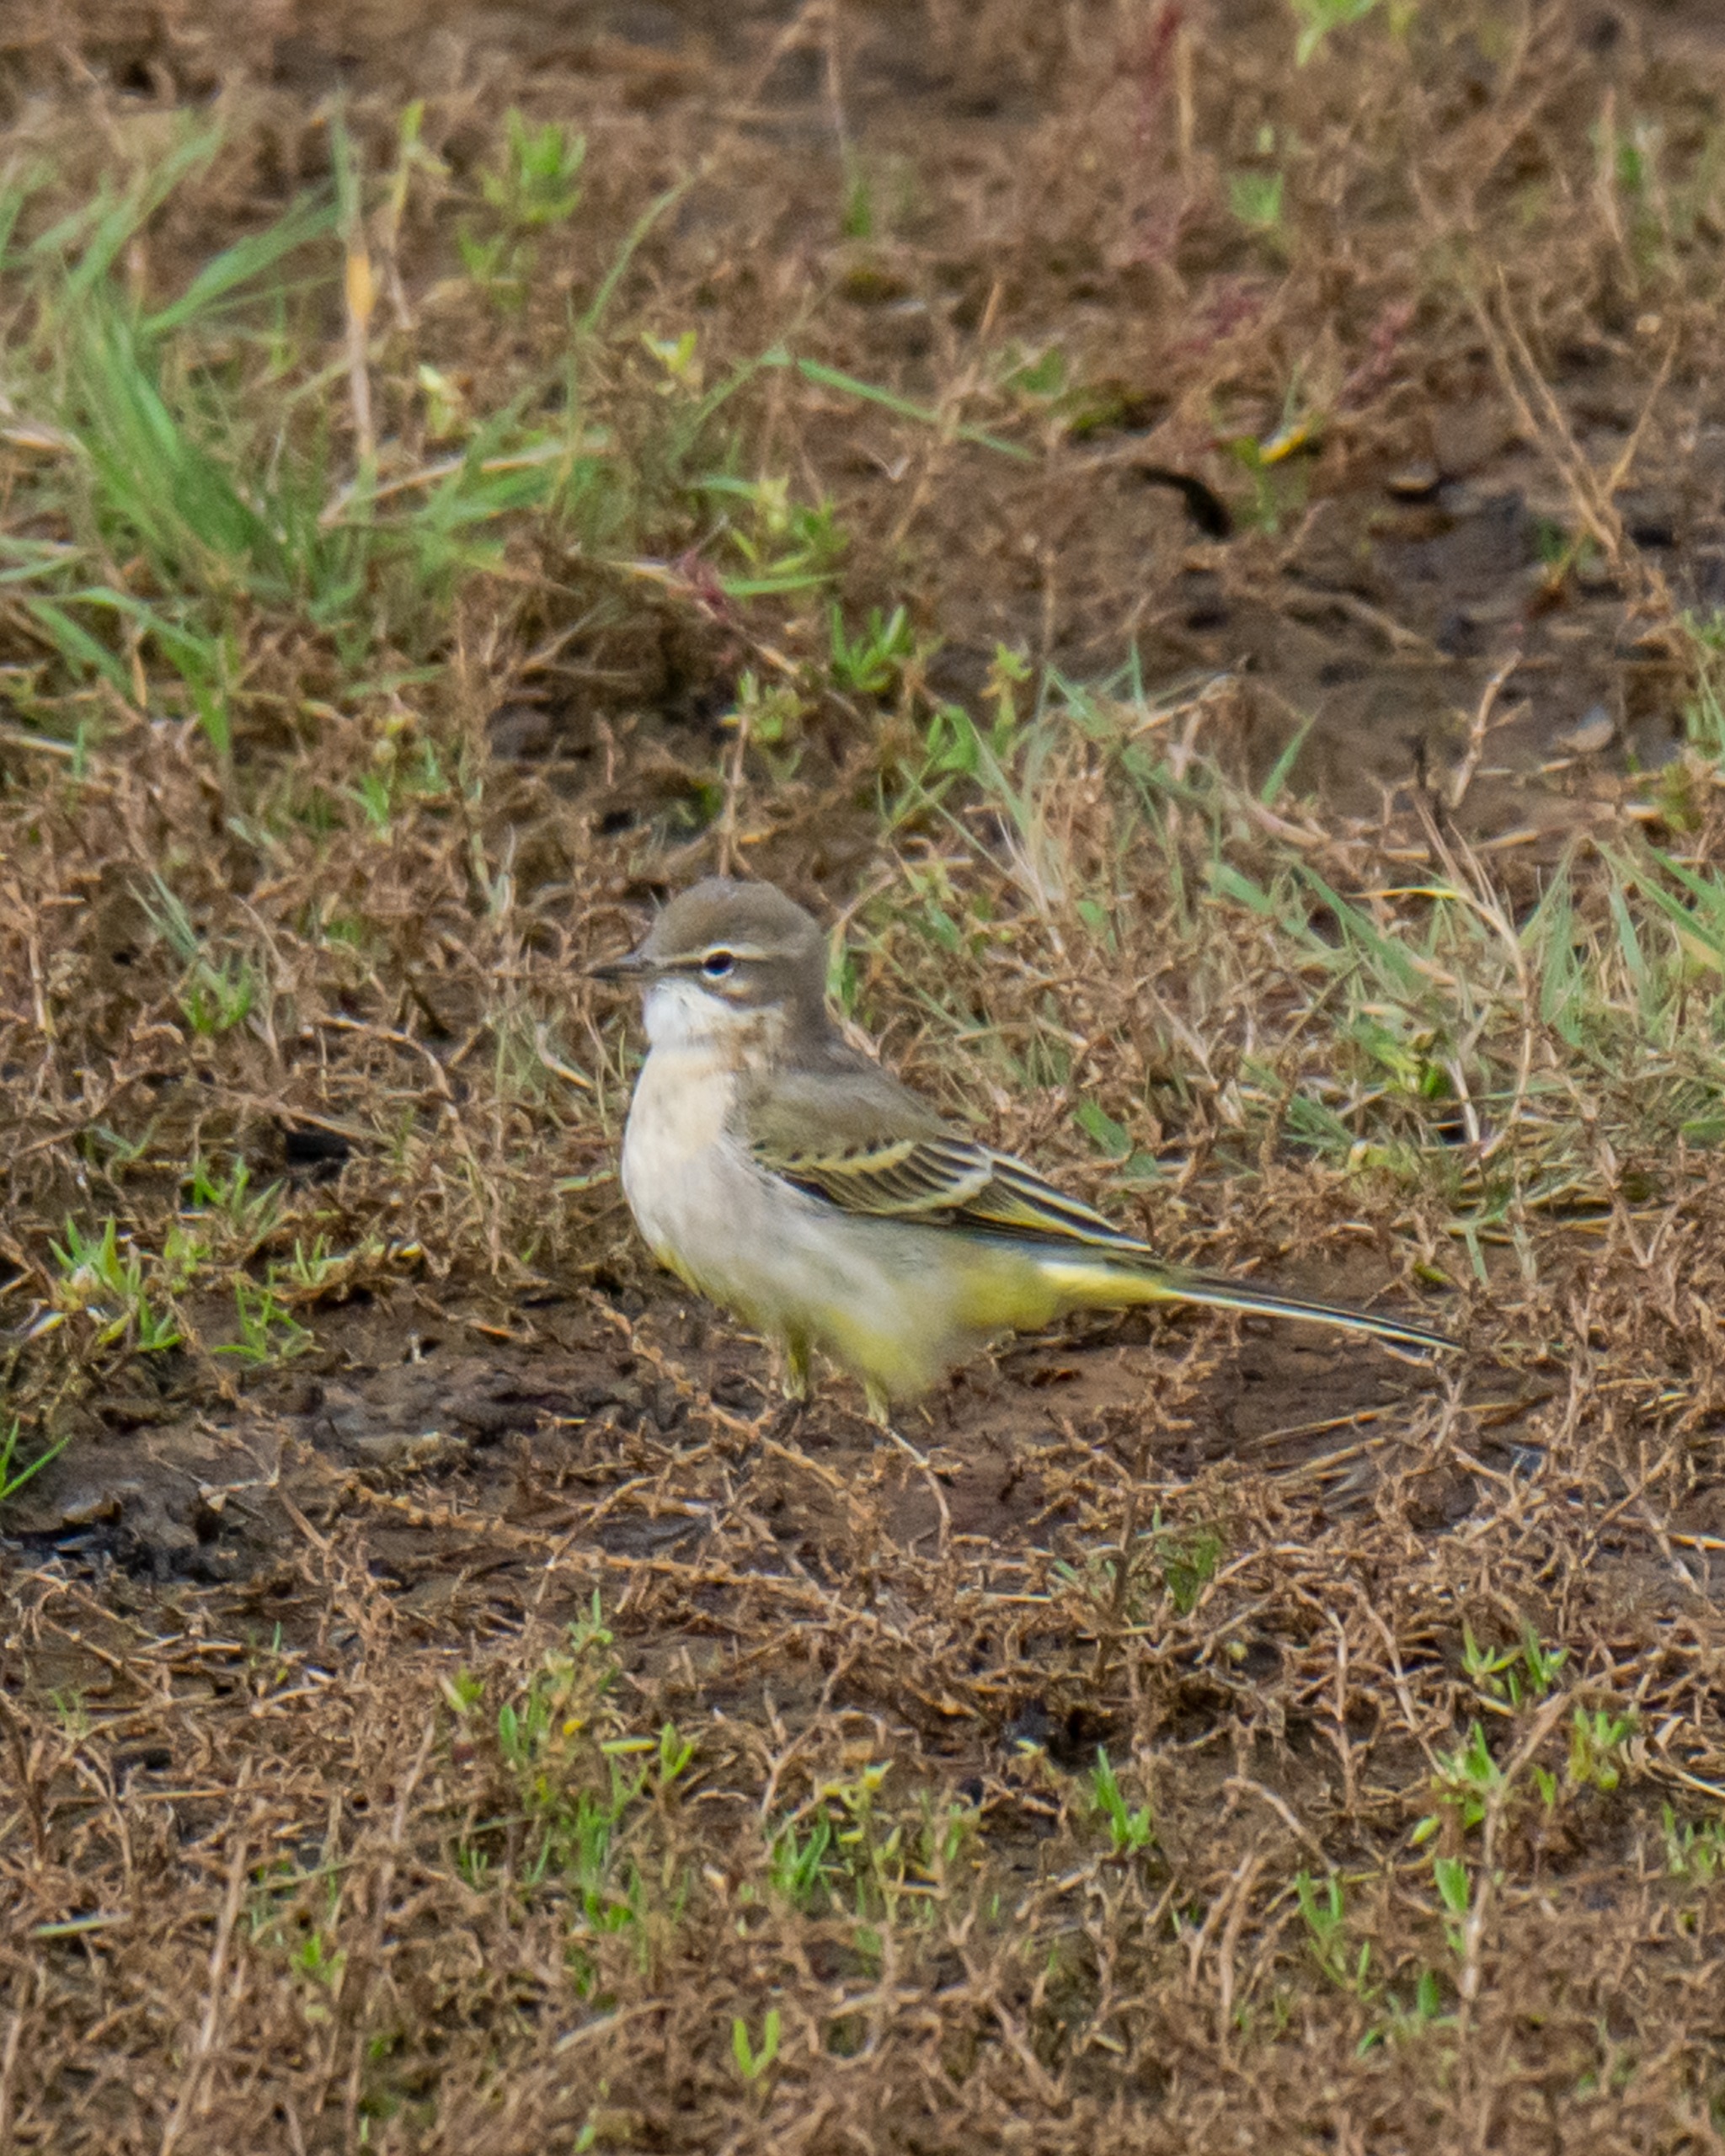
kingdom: Animalia
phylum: Chordata
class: Aves
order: Passeriformes
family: Motacillidae
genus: Motacilla
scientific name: Motacilla flava
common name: Gul vipstjert
